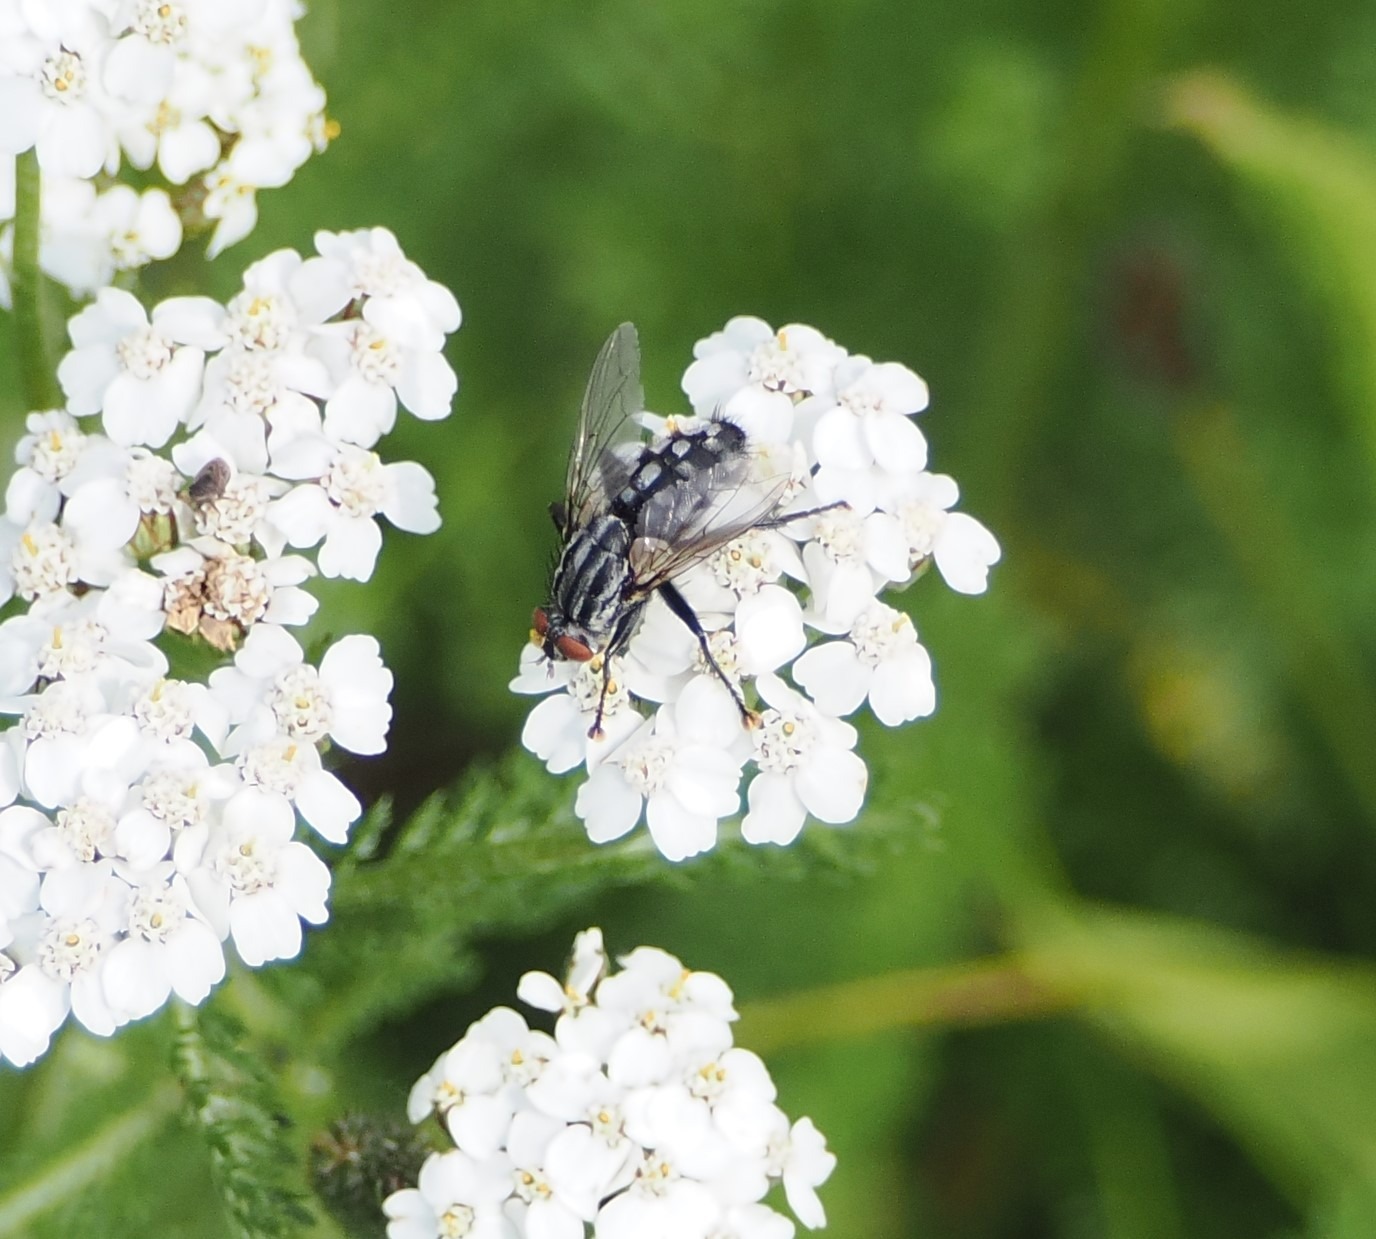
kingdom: Animalia
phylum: Arthropoda
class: Insecta
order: Diptera
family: Sarcophagidae
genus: Sarcophaga
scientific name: Sarcophaga
